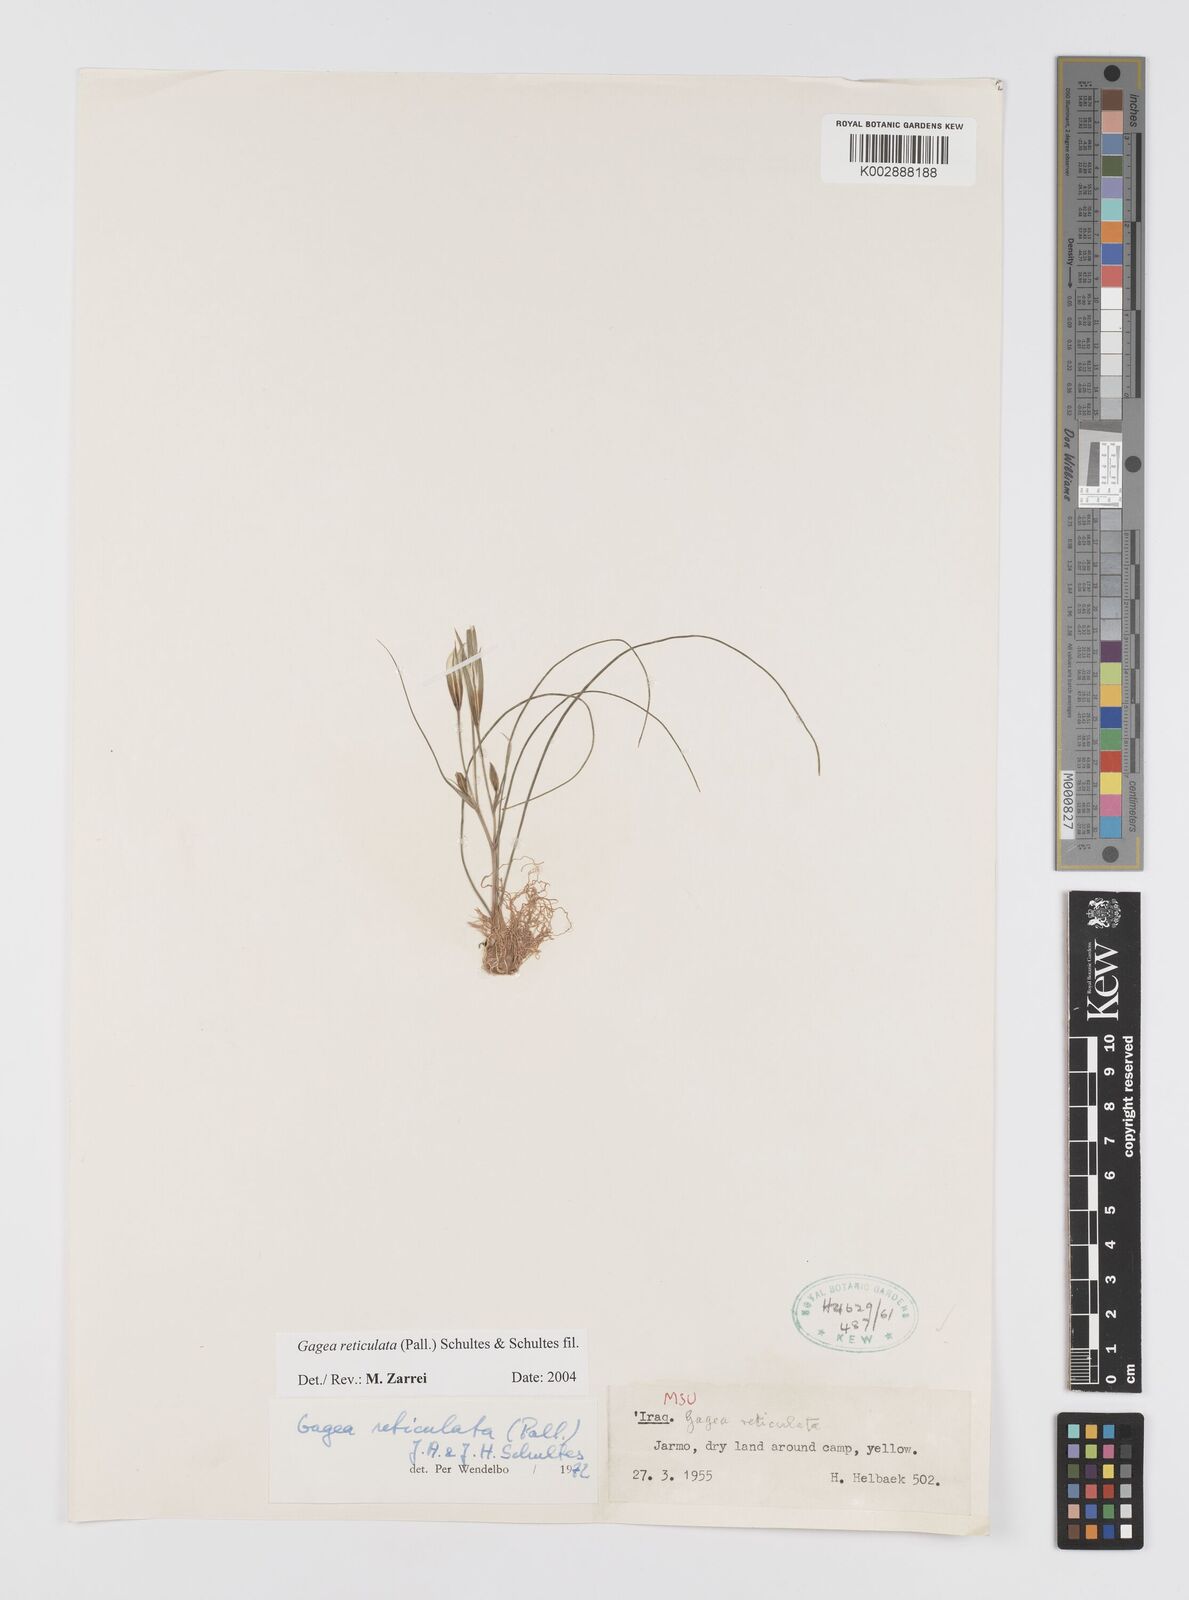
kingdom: Plantae
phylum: Tracheophyta
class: Liliopsida
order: Liliales
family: Liliaceae
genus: Gagea
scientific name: Gagea reticulata
